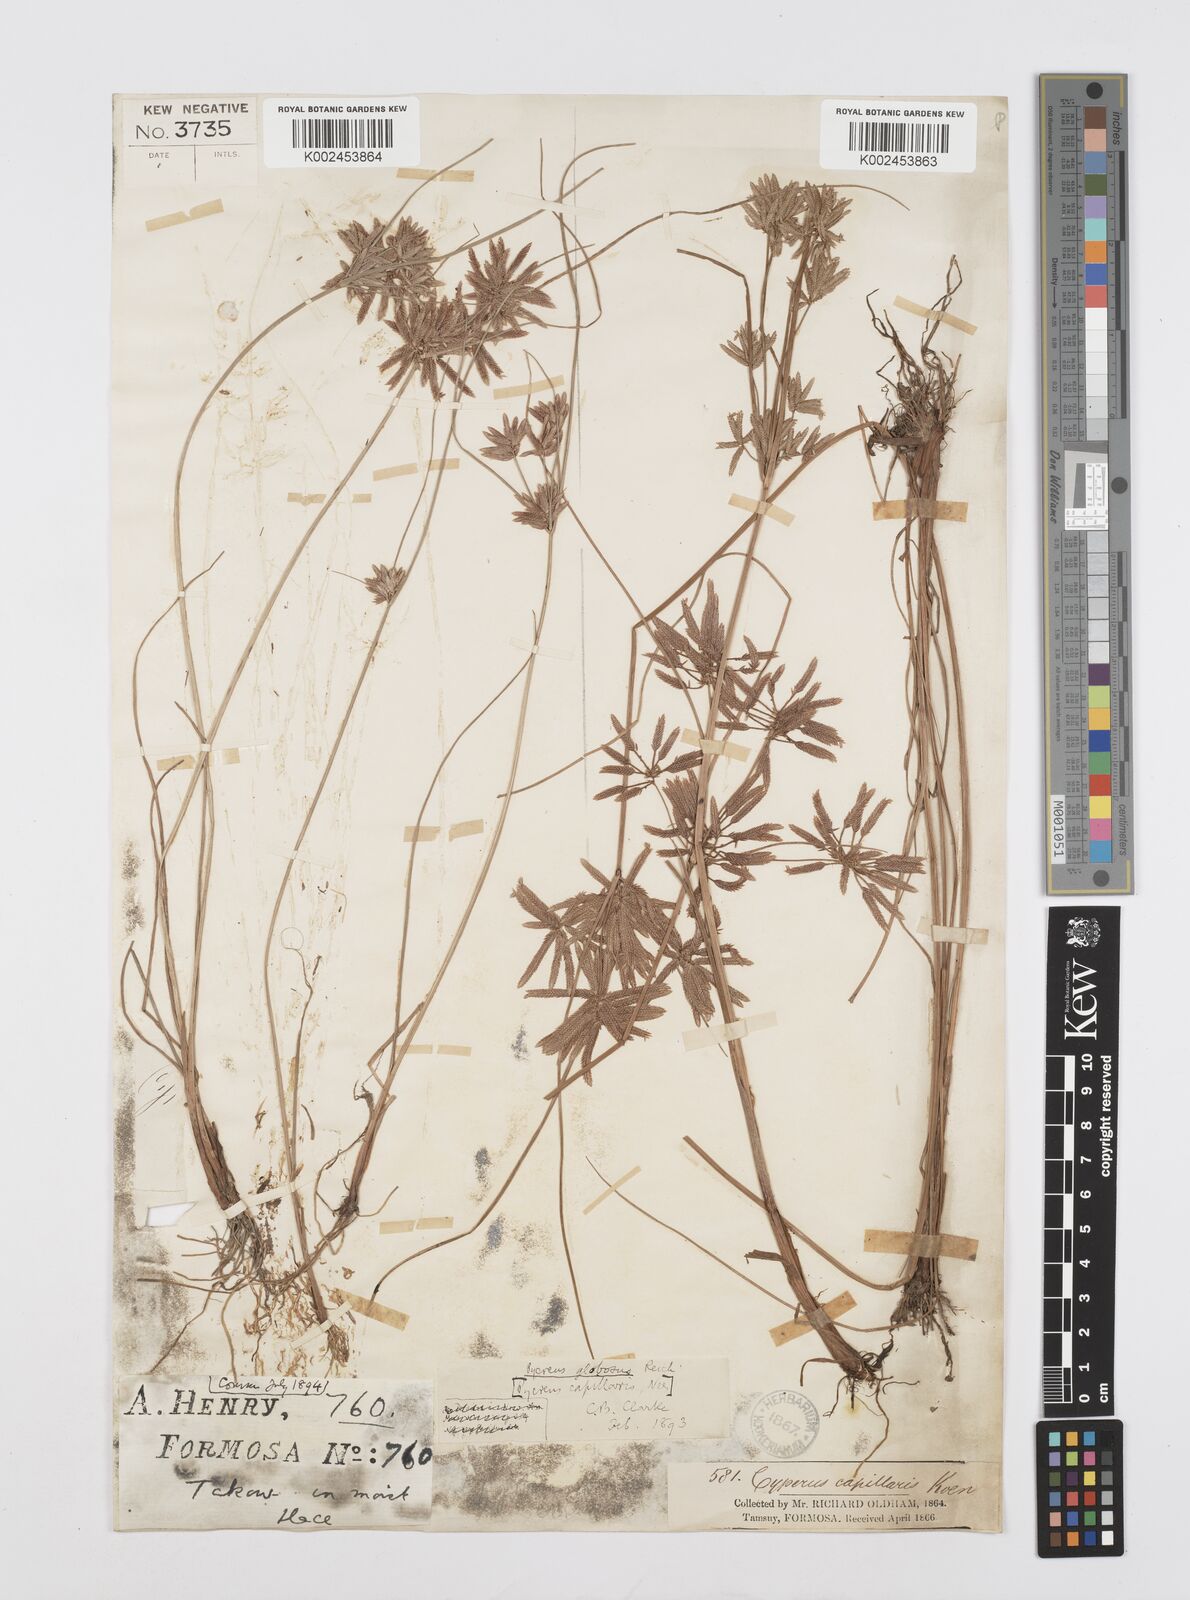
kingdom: Plantae
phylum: Tracheophyta
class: Liliopsida
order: Poales
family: Cyperaceae
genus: Cyperus
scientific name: Cyperus flavidus
